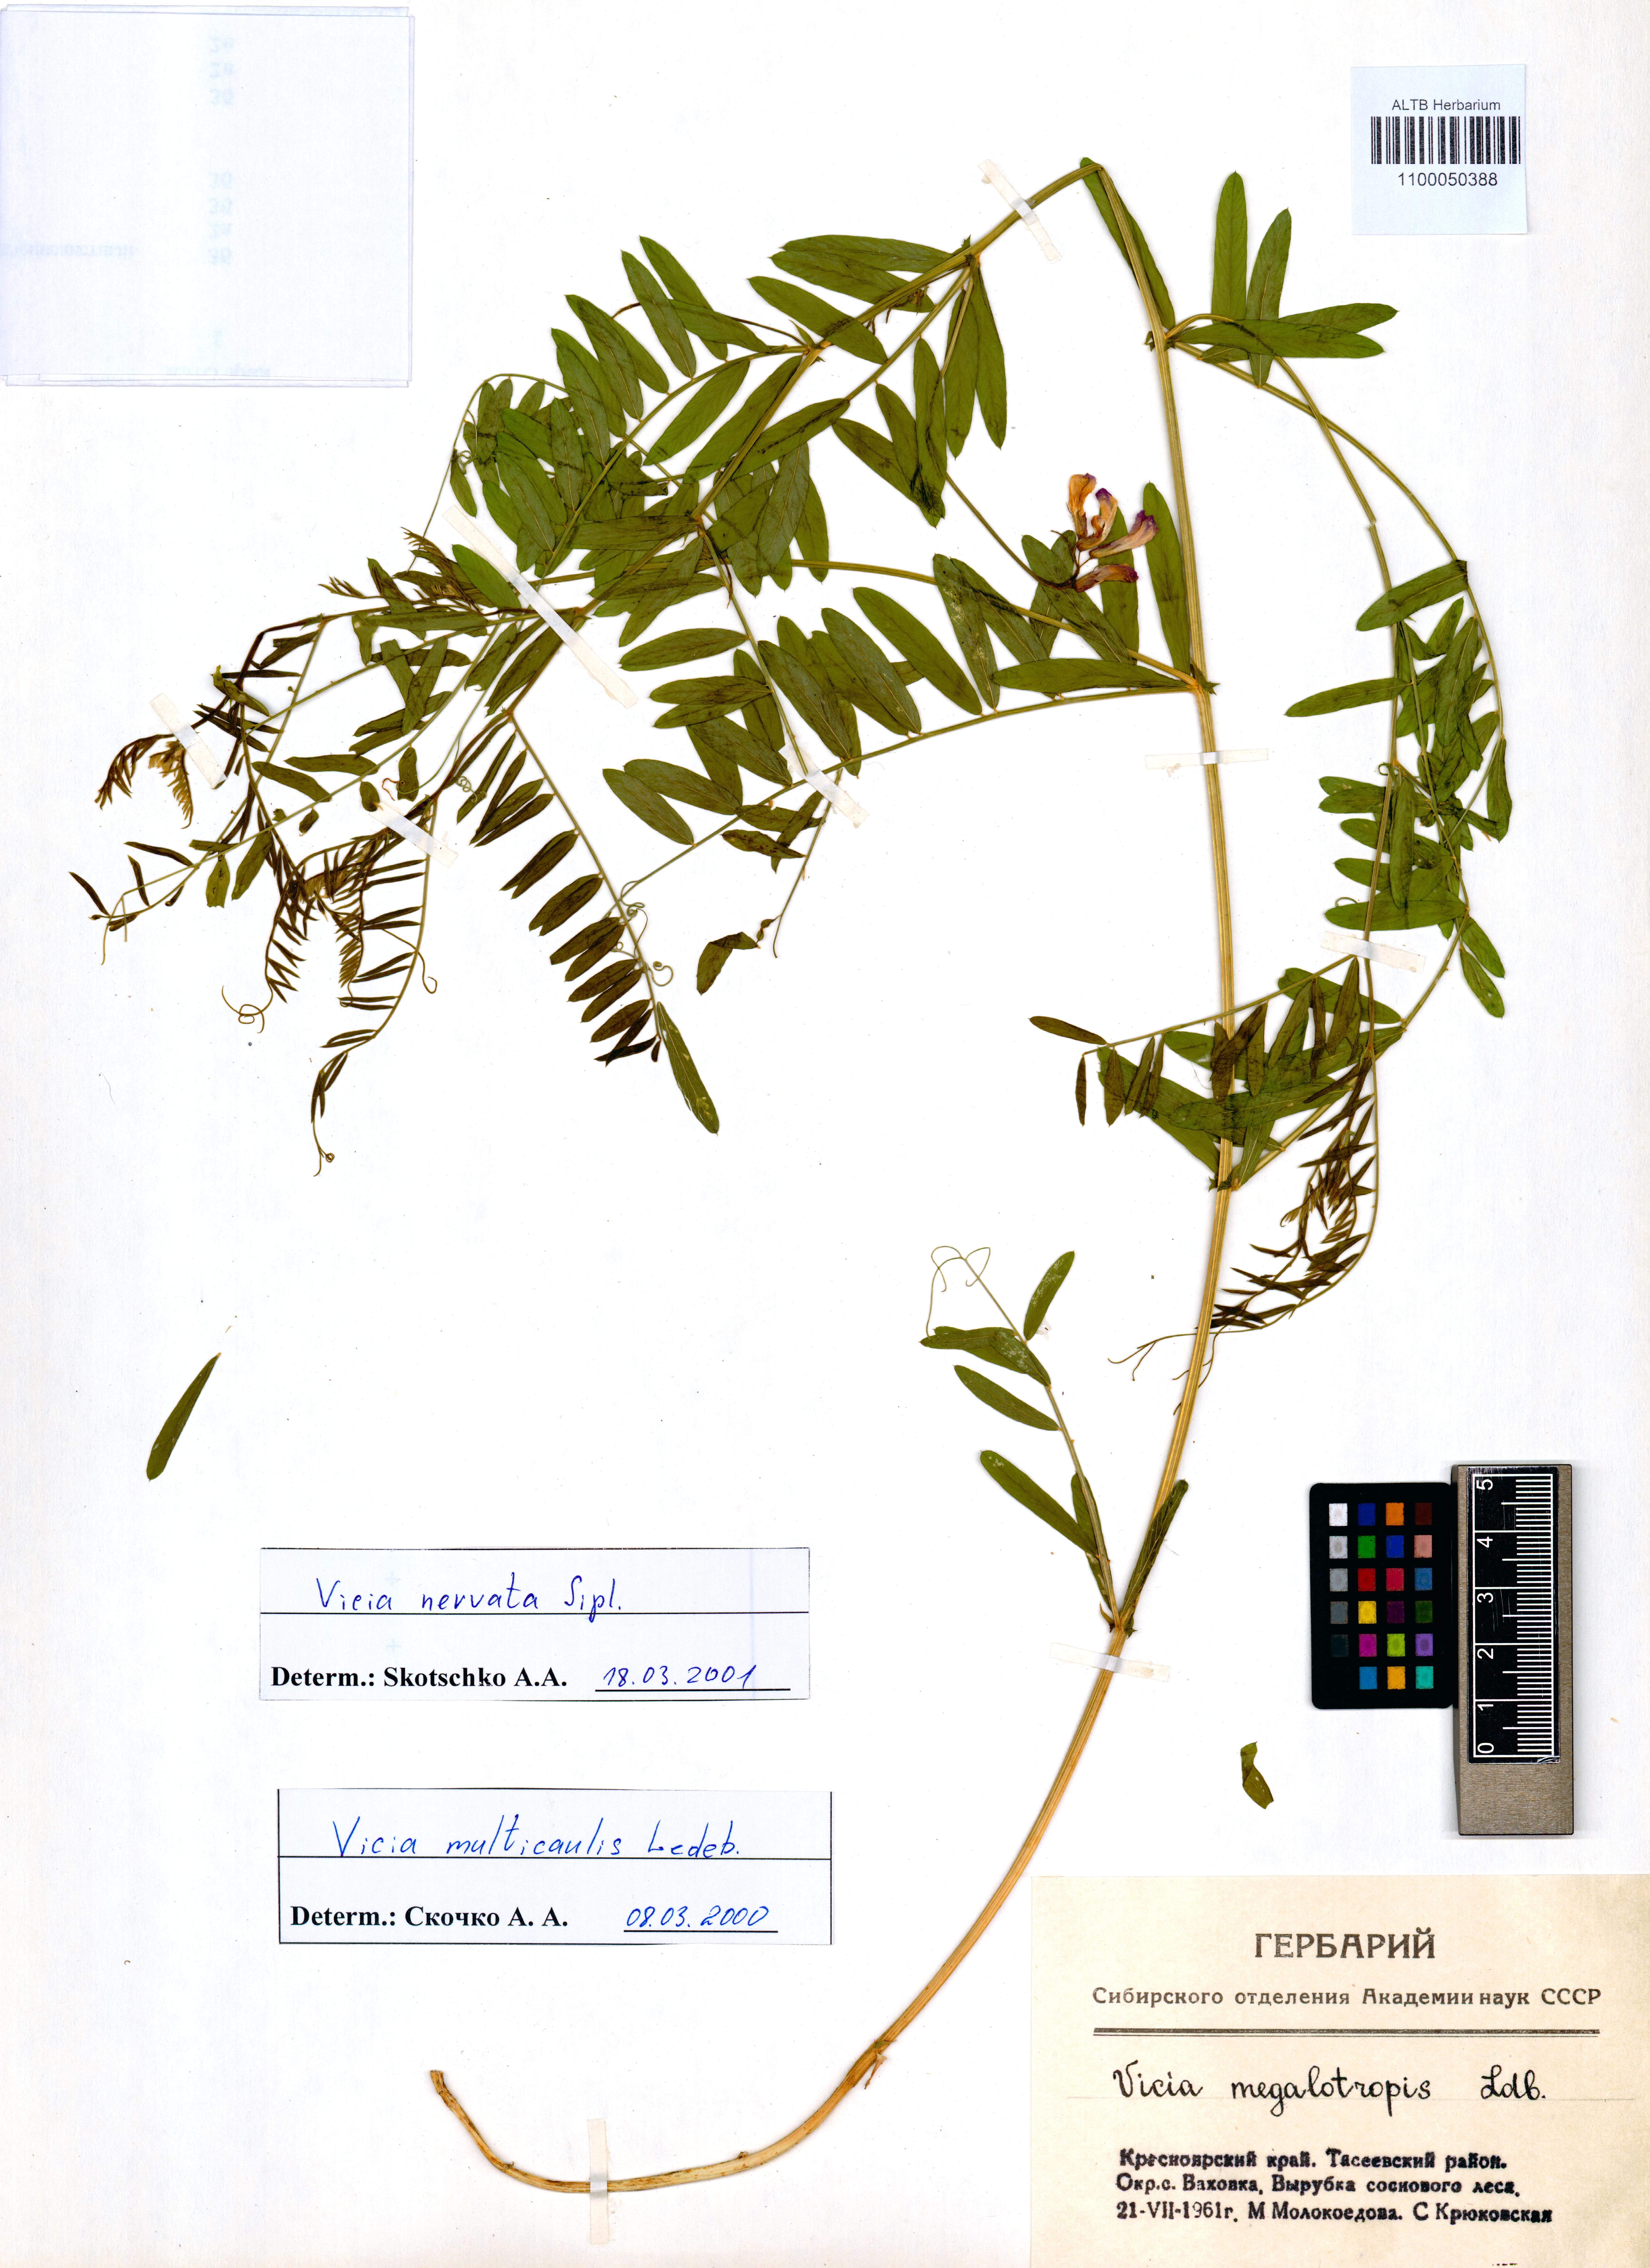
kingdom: Plantae
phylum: Tracheophyta
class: Magnoliopsida
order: Fabales
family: Fabaceae
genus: Vicia
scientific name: Vicia multicaulis
